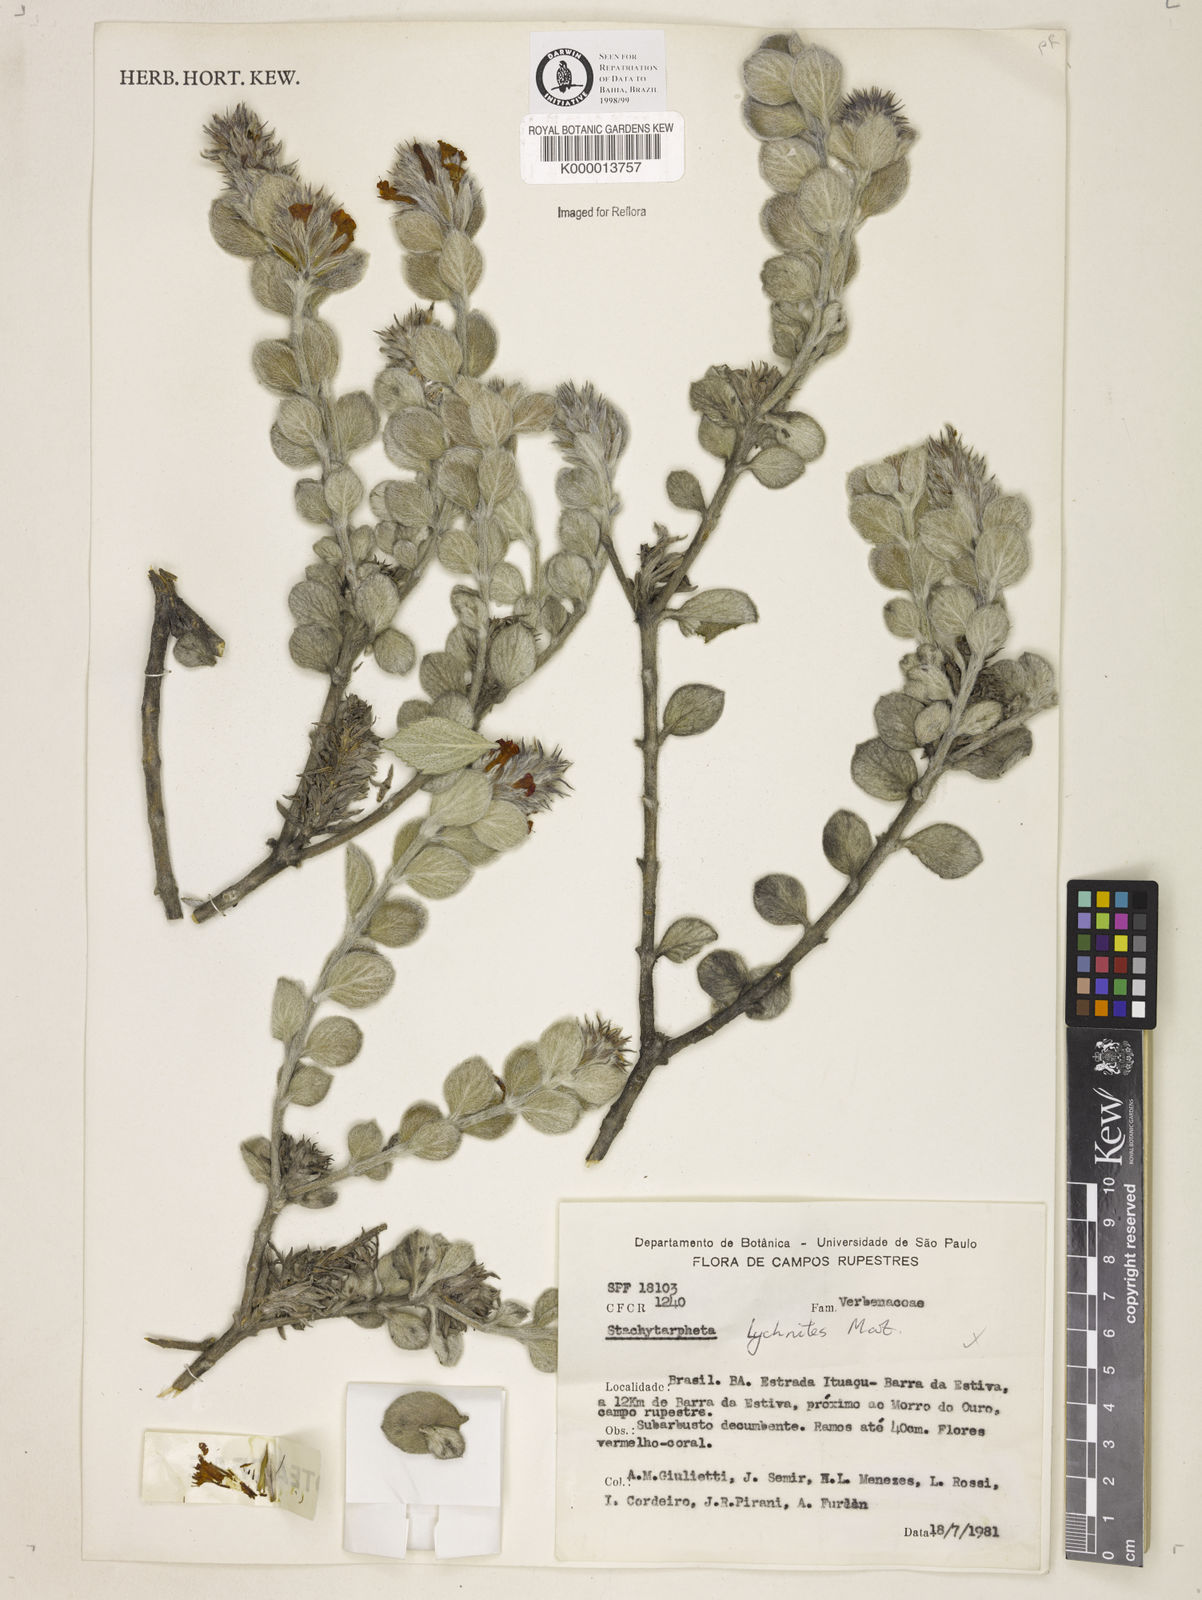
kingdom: Plantae
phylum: Tracheophyta
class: Magnoliopsida
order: Lamiales
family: Verbenaceae
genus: Stachytarpheta
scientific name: Stachytarpheta
